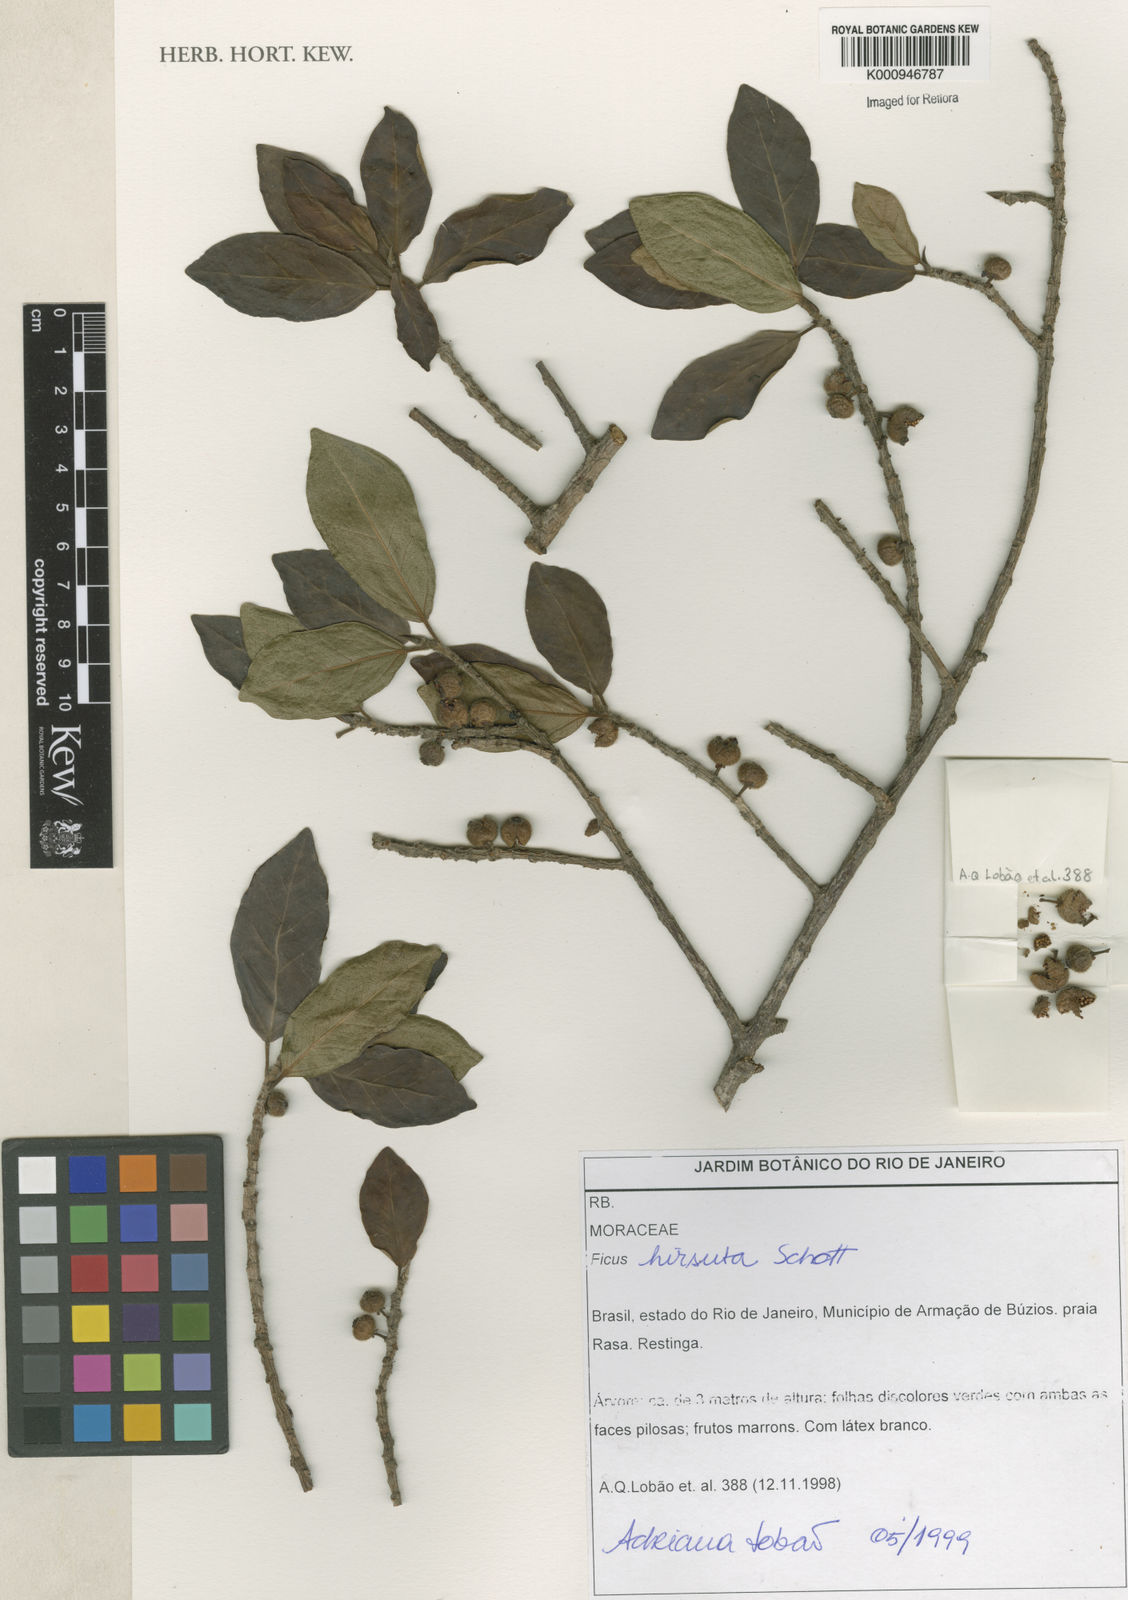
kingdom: Plantae
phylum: Tracheophyta
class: Magnoliopsida
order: Rosales
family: Moraceae
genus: Ficus
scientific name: Ficus hirsuta
